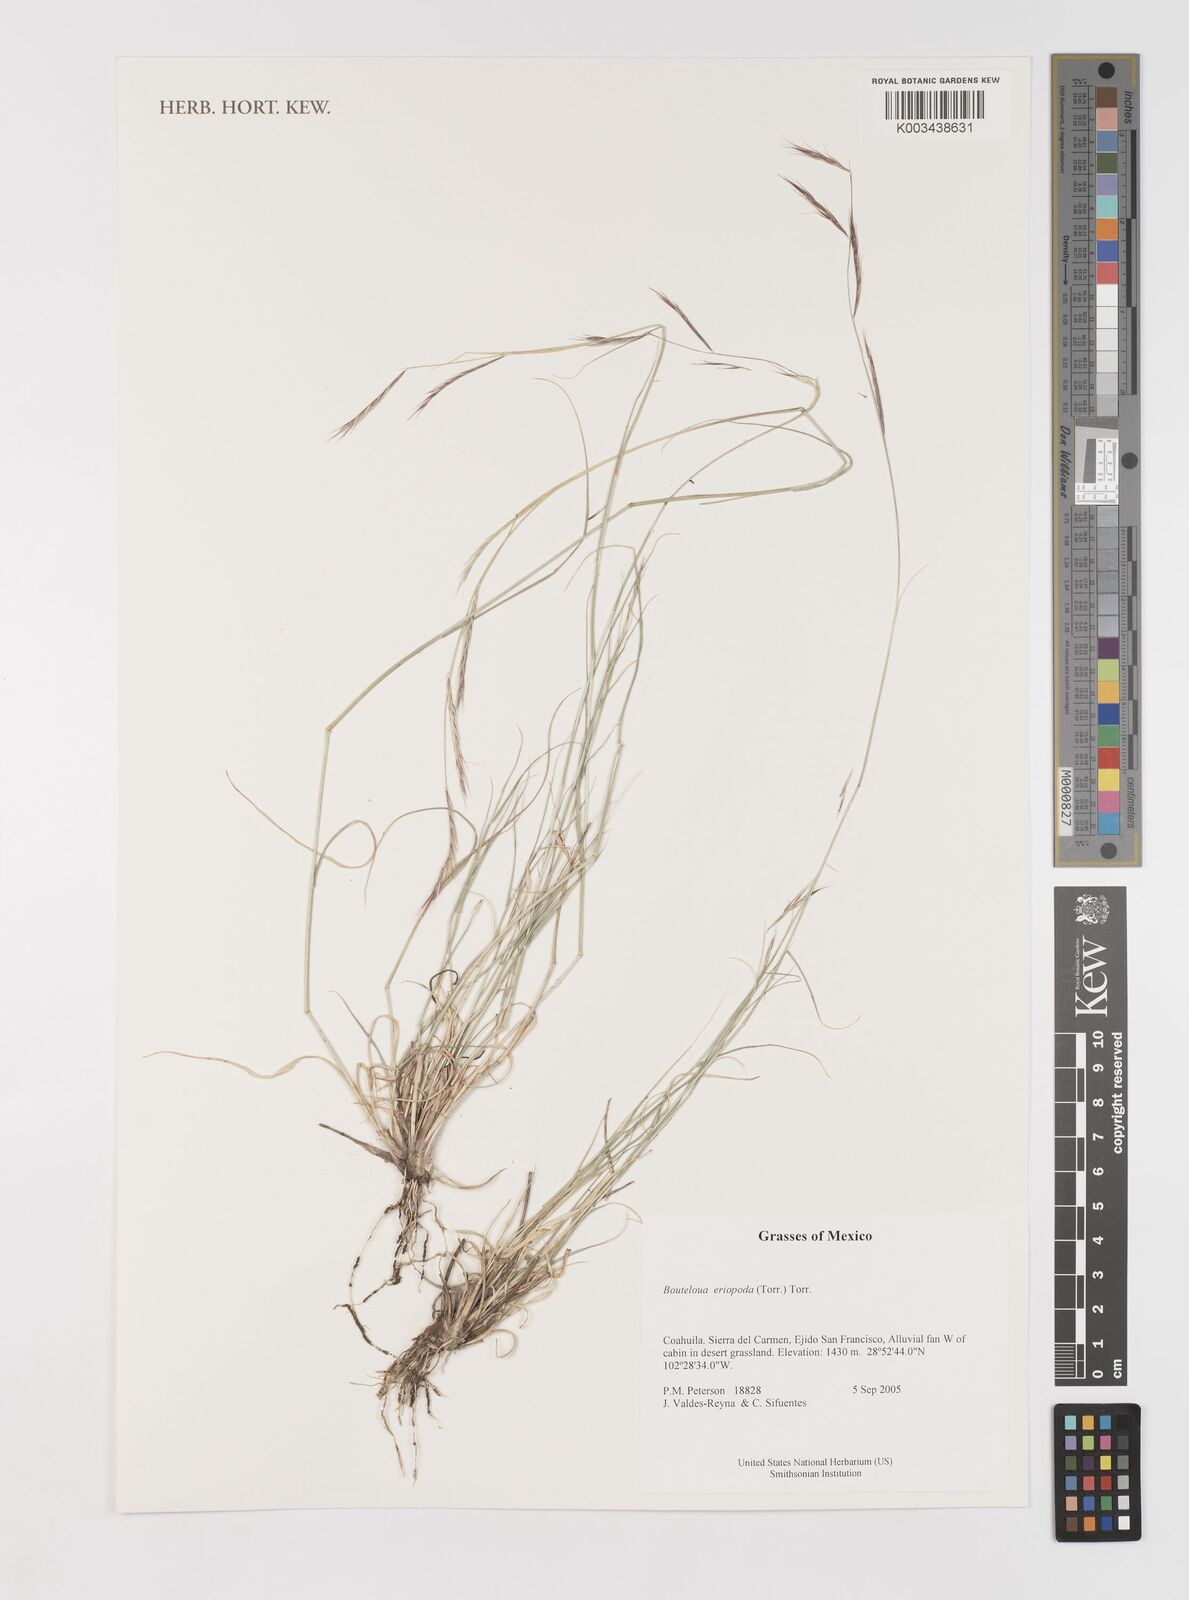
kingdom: Plantae
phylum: Tracheophyta
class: Liliopsida
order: Poales
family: Poaceae
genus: Bouteloua
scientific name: Bouteloua eriopoda
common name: Woolly foot grama
